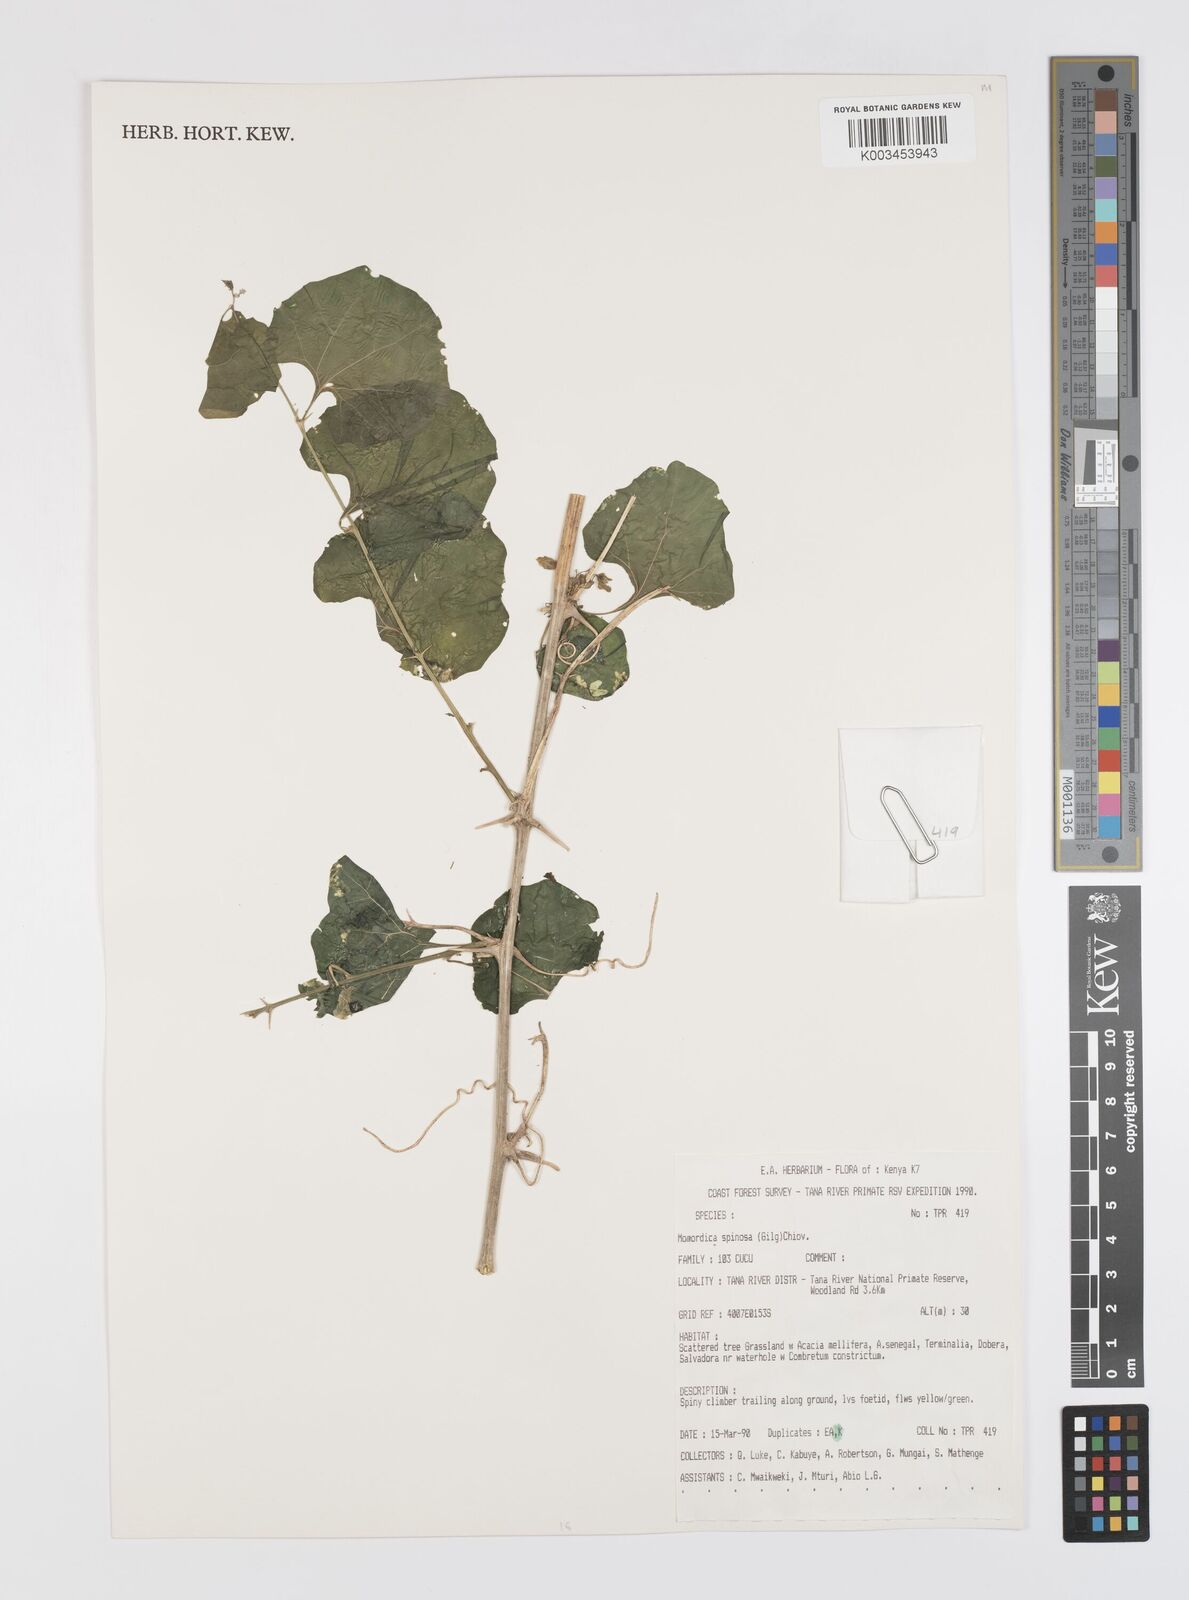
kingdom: Plantae
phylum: Tracheophyta
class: Magnoliopsida
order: Cucurbitales
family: Cucurbitaceae
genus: Momordica
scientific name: Momordica spinosa
